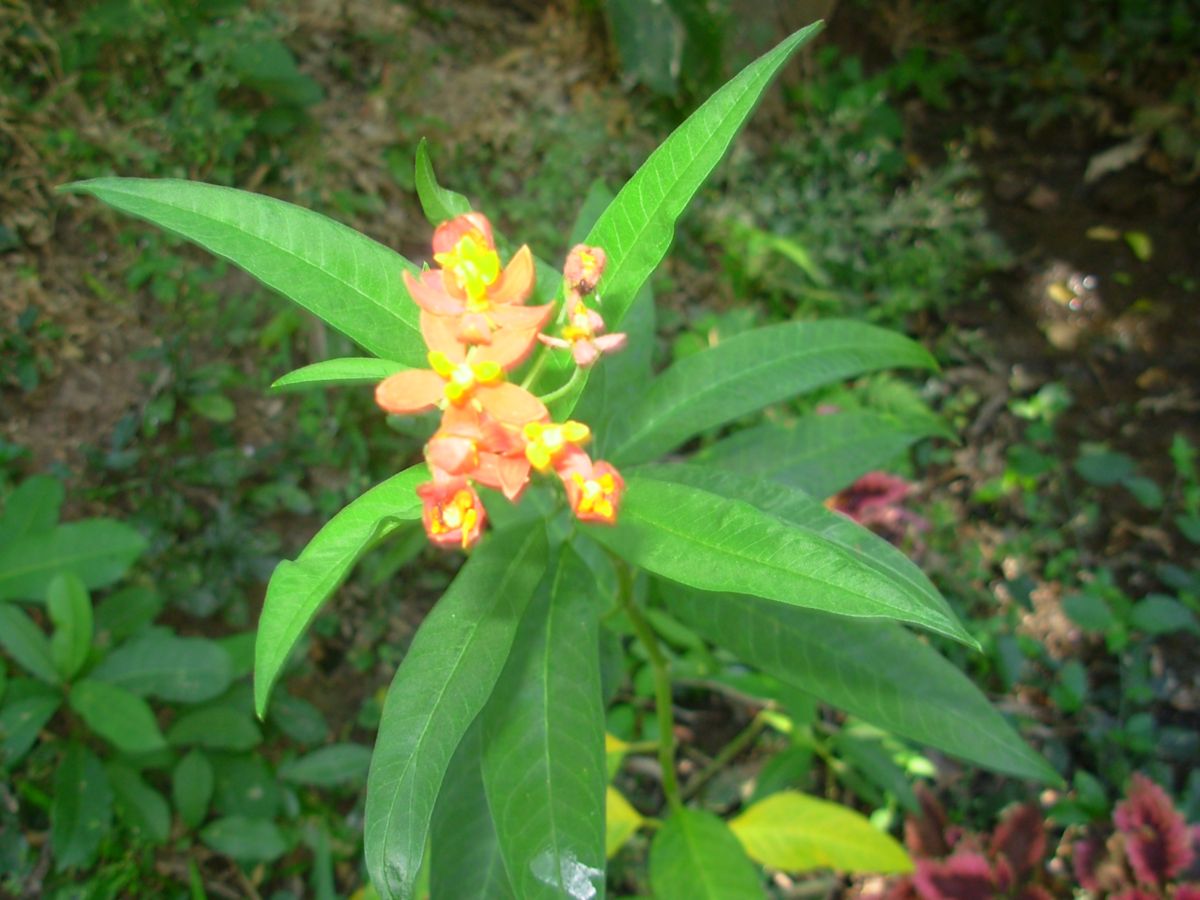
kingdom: Plantae
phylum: Tracheophyta
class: Magnoliopsida
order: Gentianales
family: Apocynaceae
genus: Asclepias
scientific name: Asclepias curassavica
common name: Bloodflower
